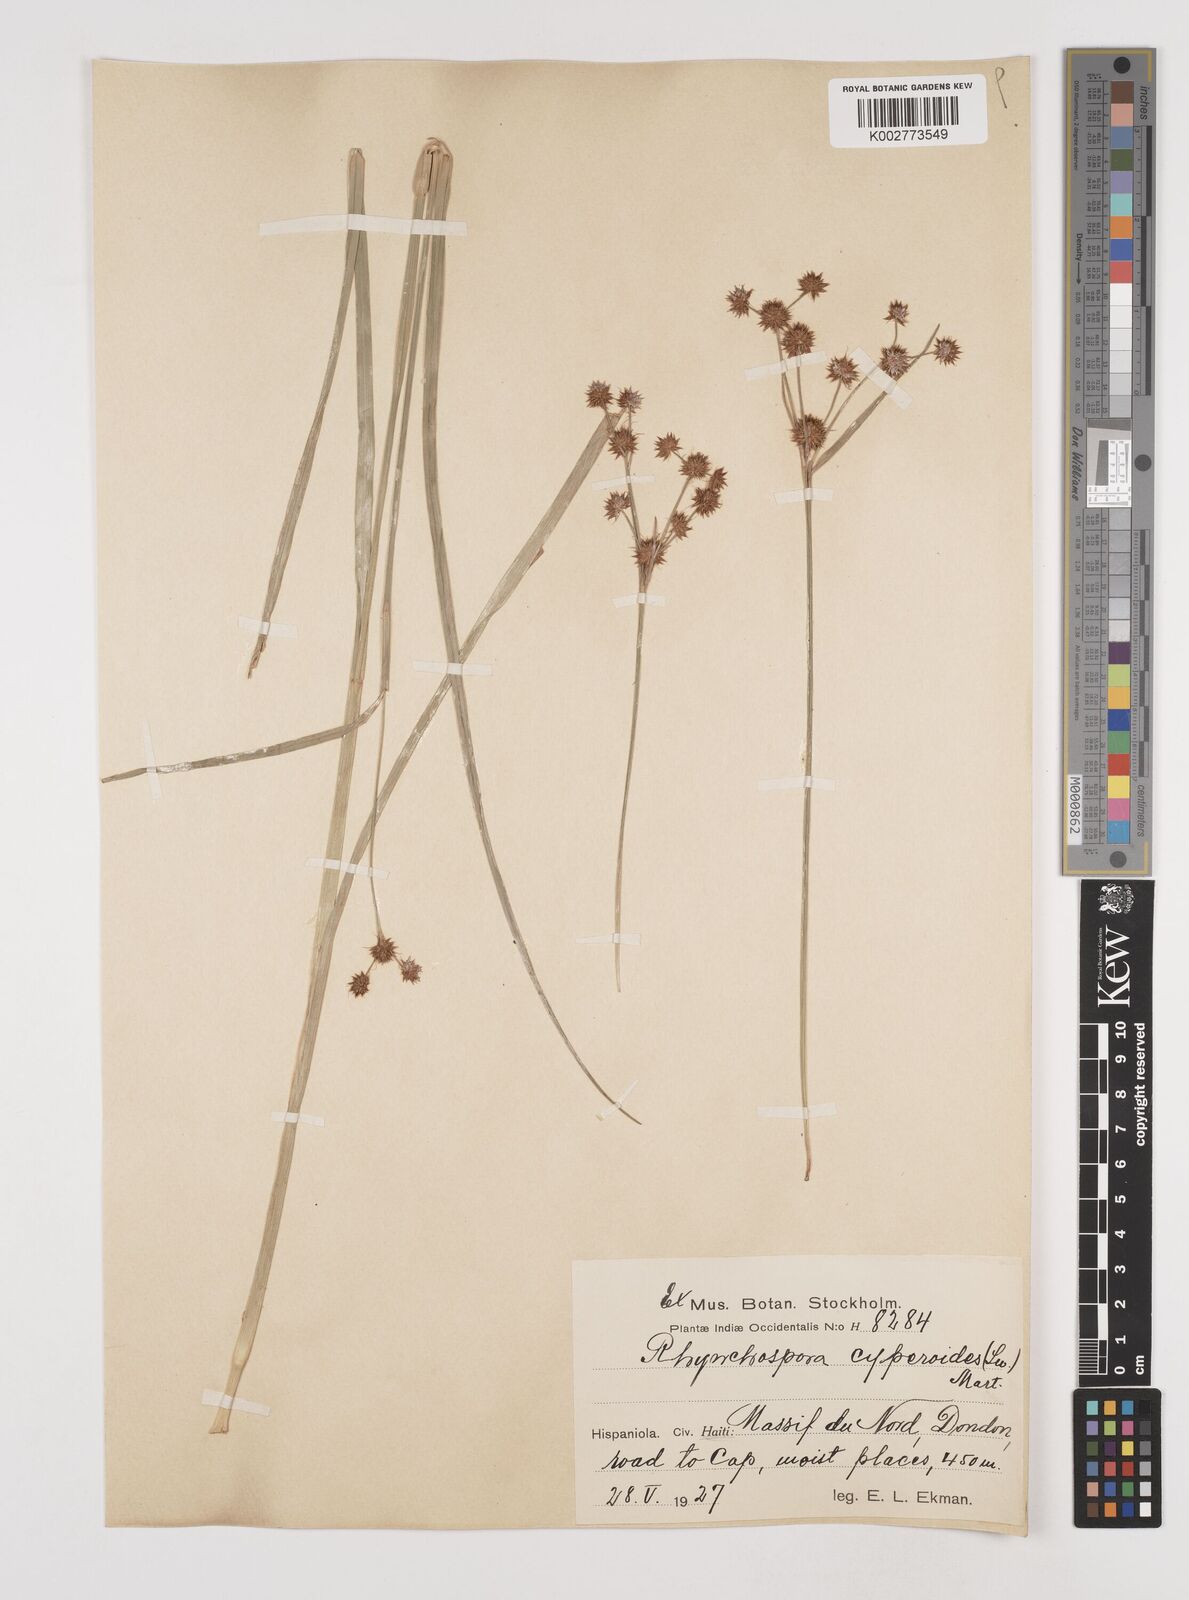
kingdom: Plantae
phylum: Tracheophyta
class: Liliopsida
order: Poales
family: Cyperaceae
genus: Rhynchospora
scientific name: Rhynchospora holoschoenoides
